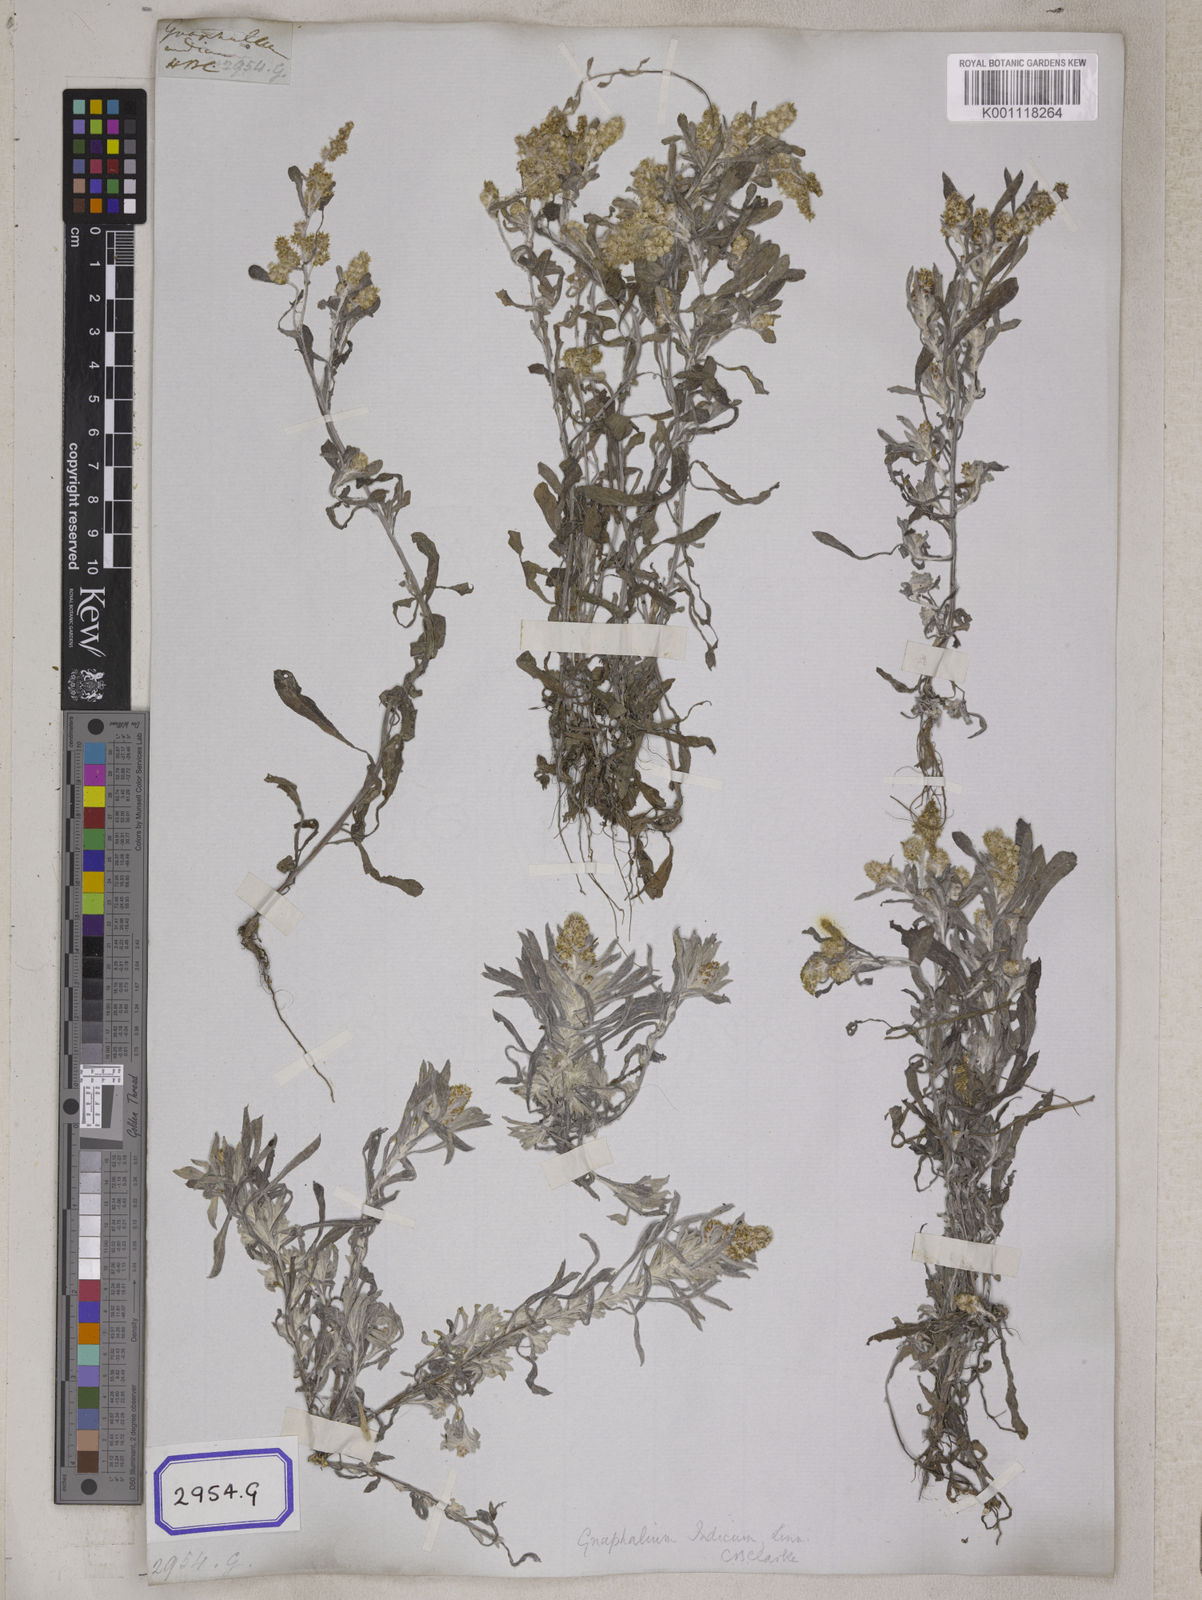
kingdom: Plantae
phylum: Tracheophyta
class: Magnoliopsida
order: Asterales
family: Asteraceae
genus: Helichrysum
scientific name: Helichrysum indicum
